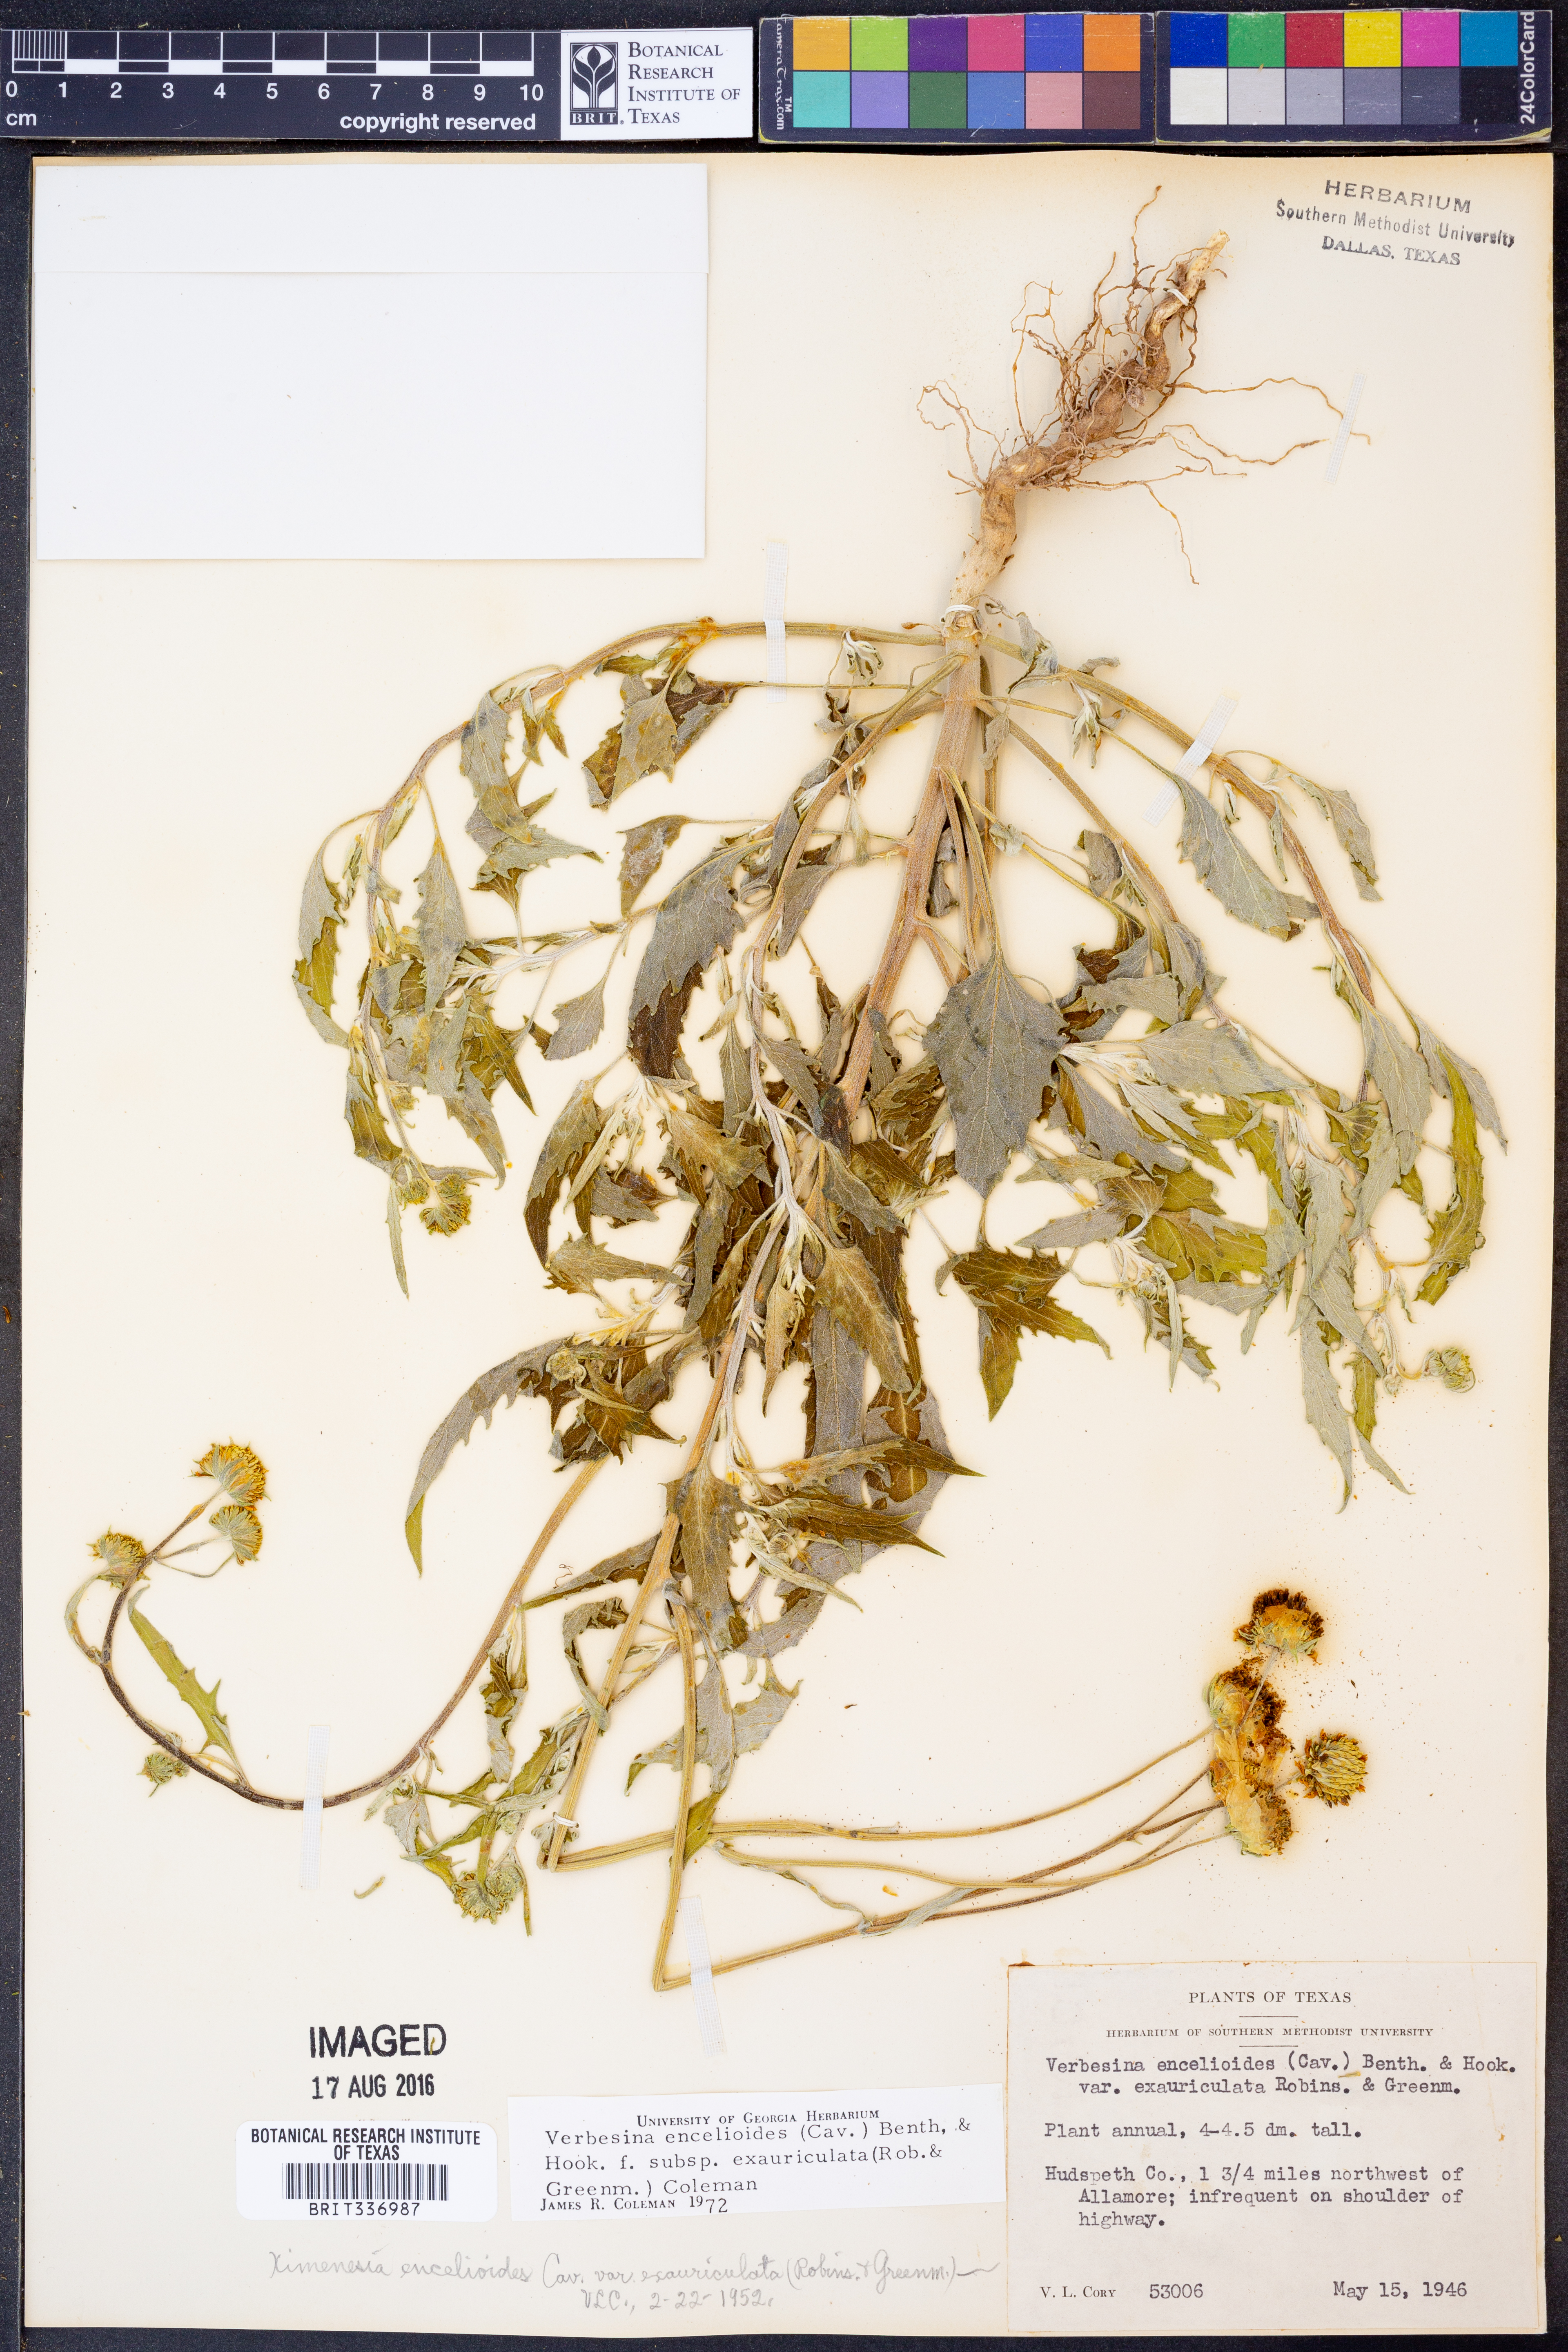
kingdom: Plantae
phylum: Tracheophyta
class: Magnoliopsida
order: Asterales
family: Asteraceae
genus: Verbesina
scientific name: Verbesina encelioides
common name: Golden crownbeard
